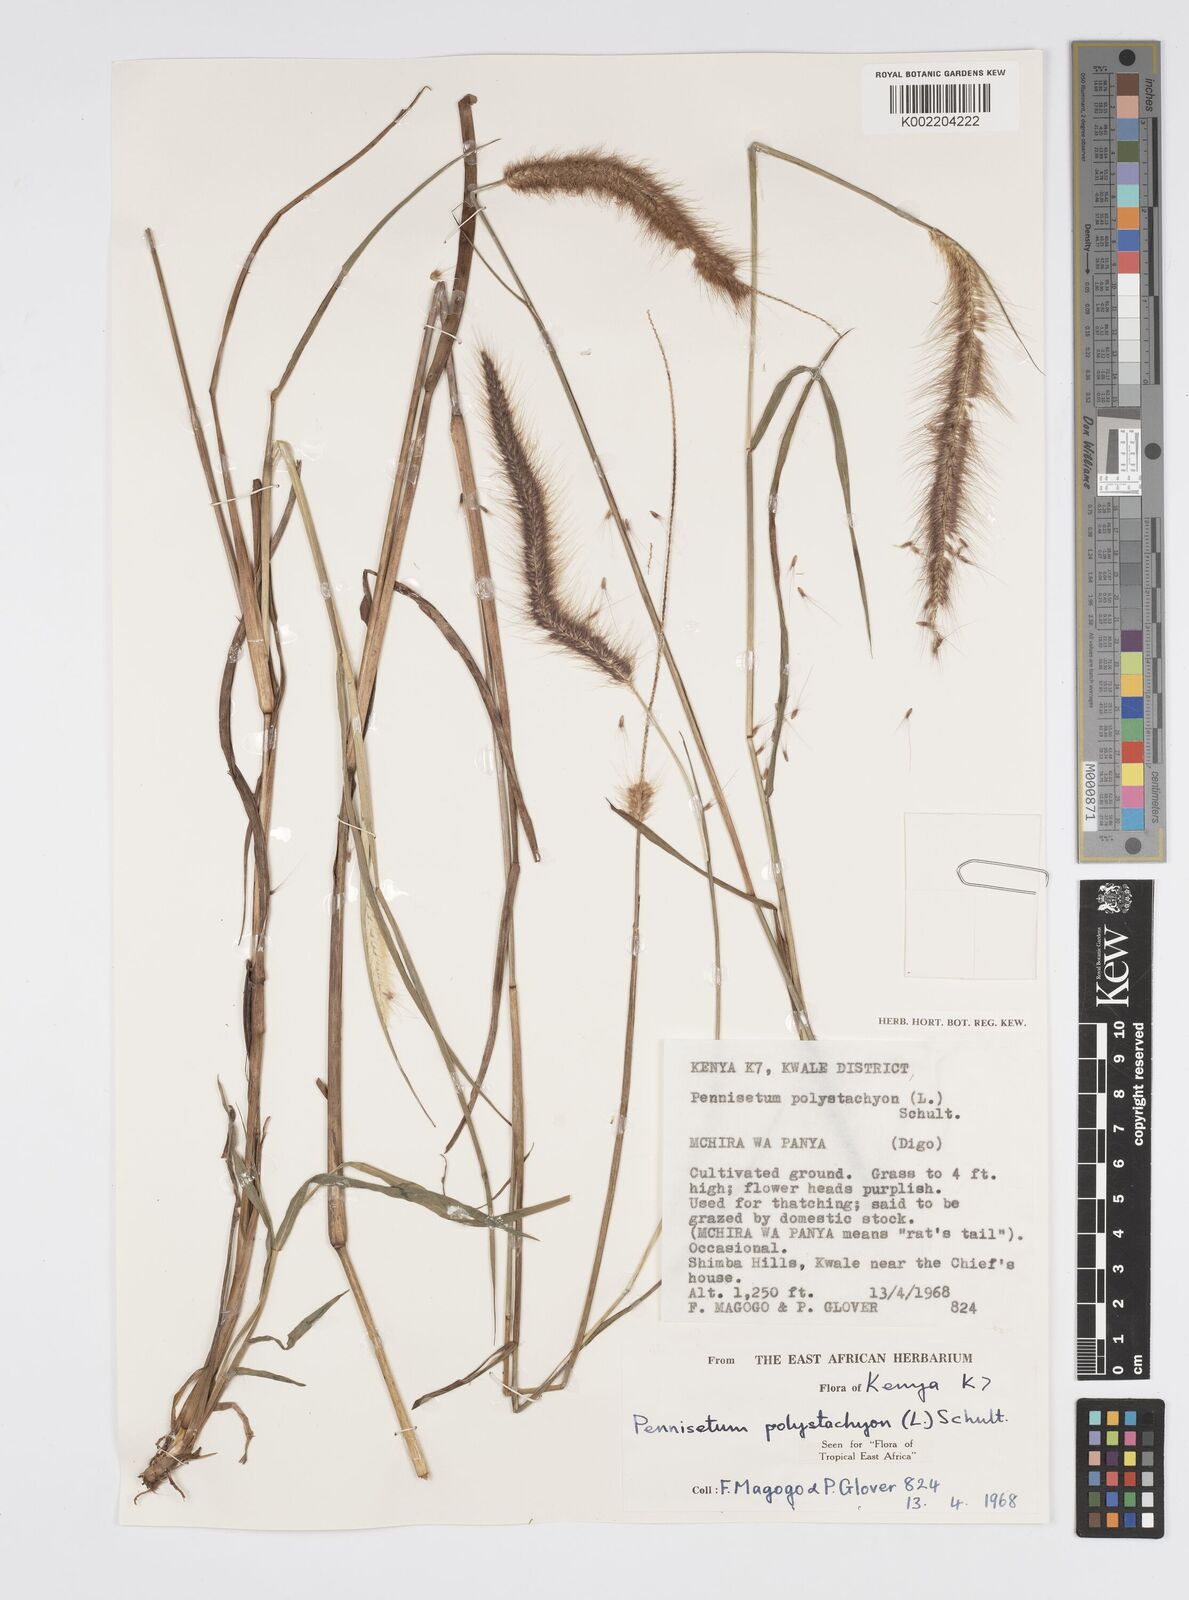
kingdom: Plantae
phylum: Tracheophyta
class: Liliopsida
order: Poales
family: Poaceae
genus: Setaria
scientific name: Setaria parviflora
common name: Knotroot bristle-grass
